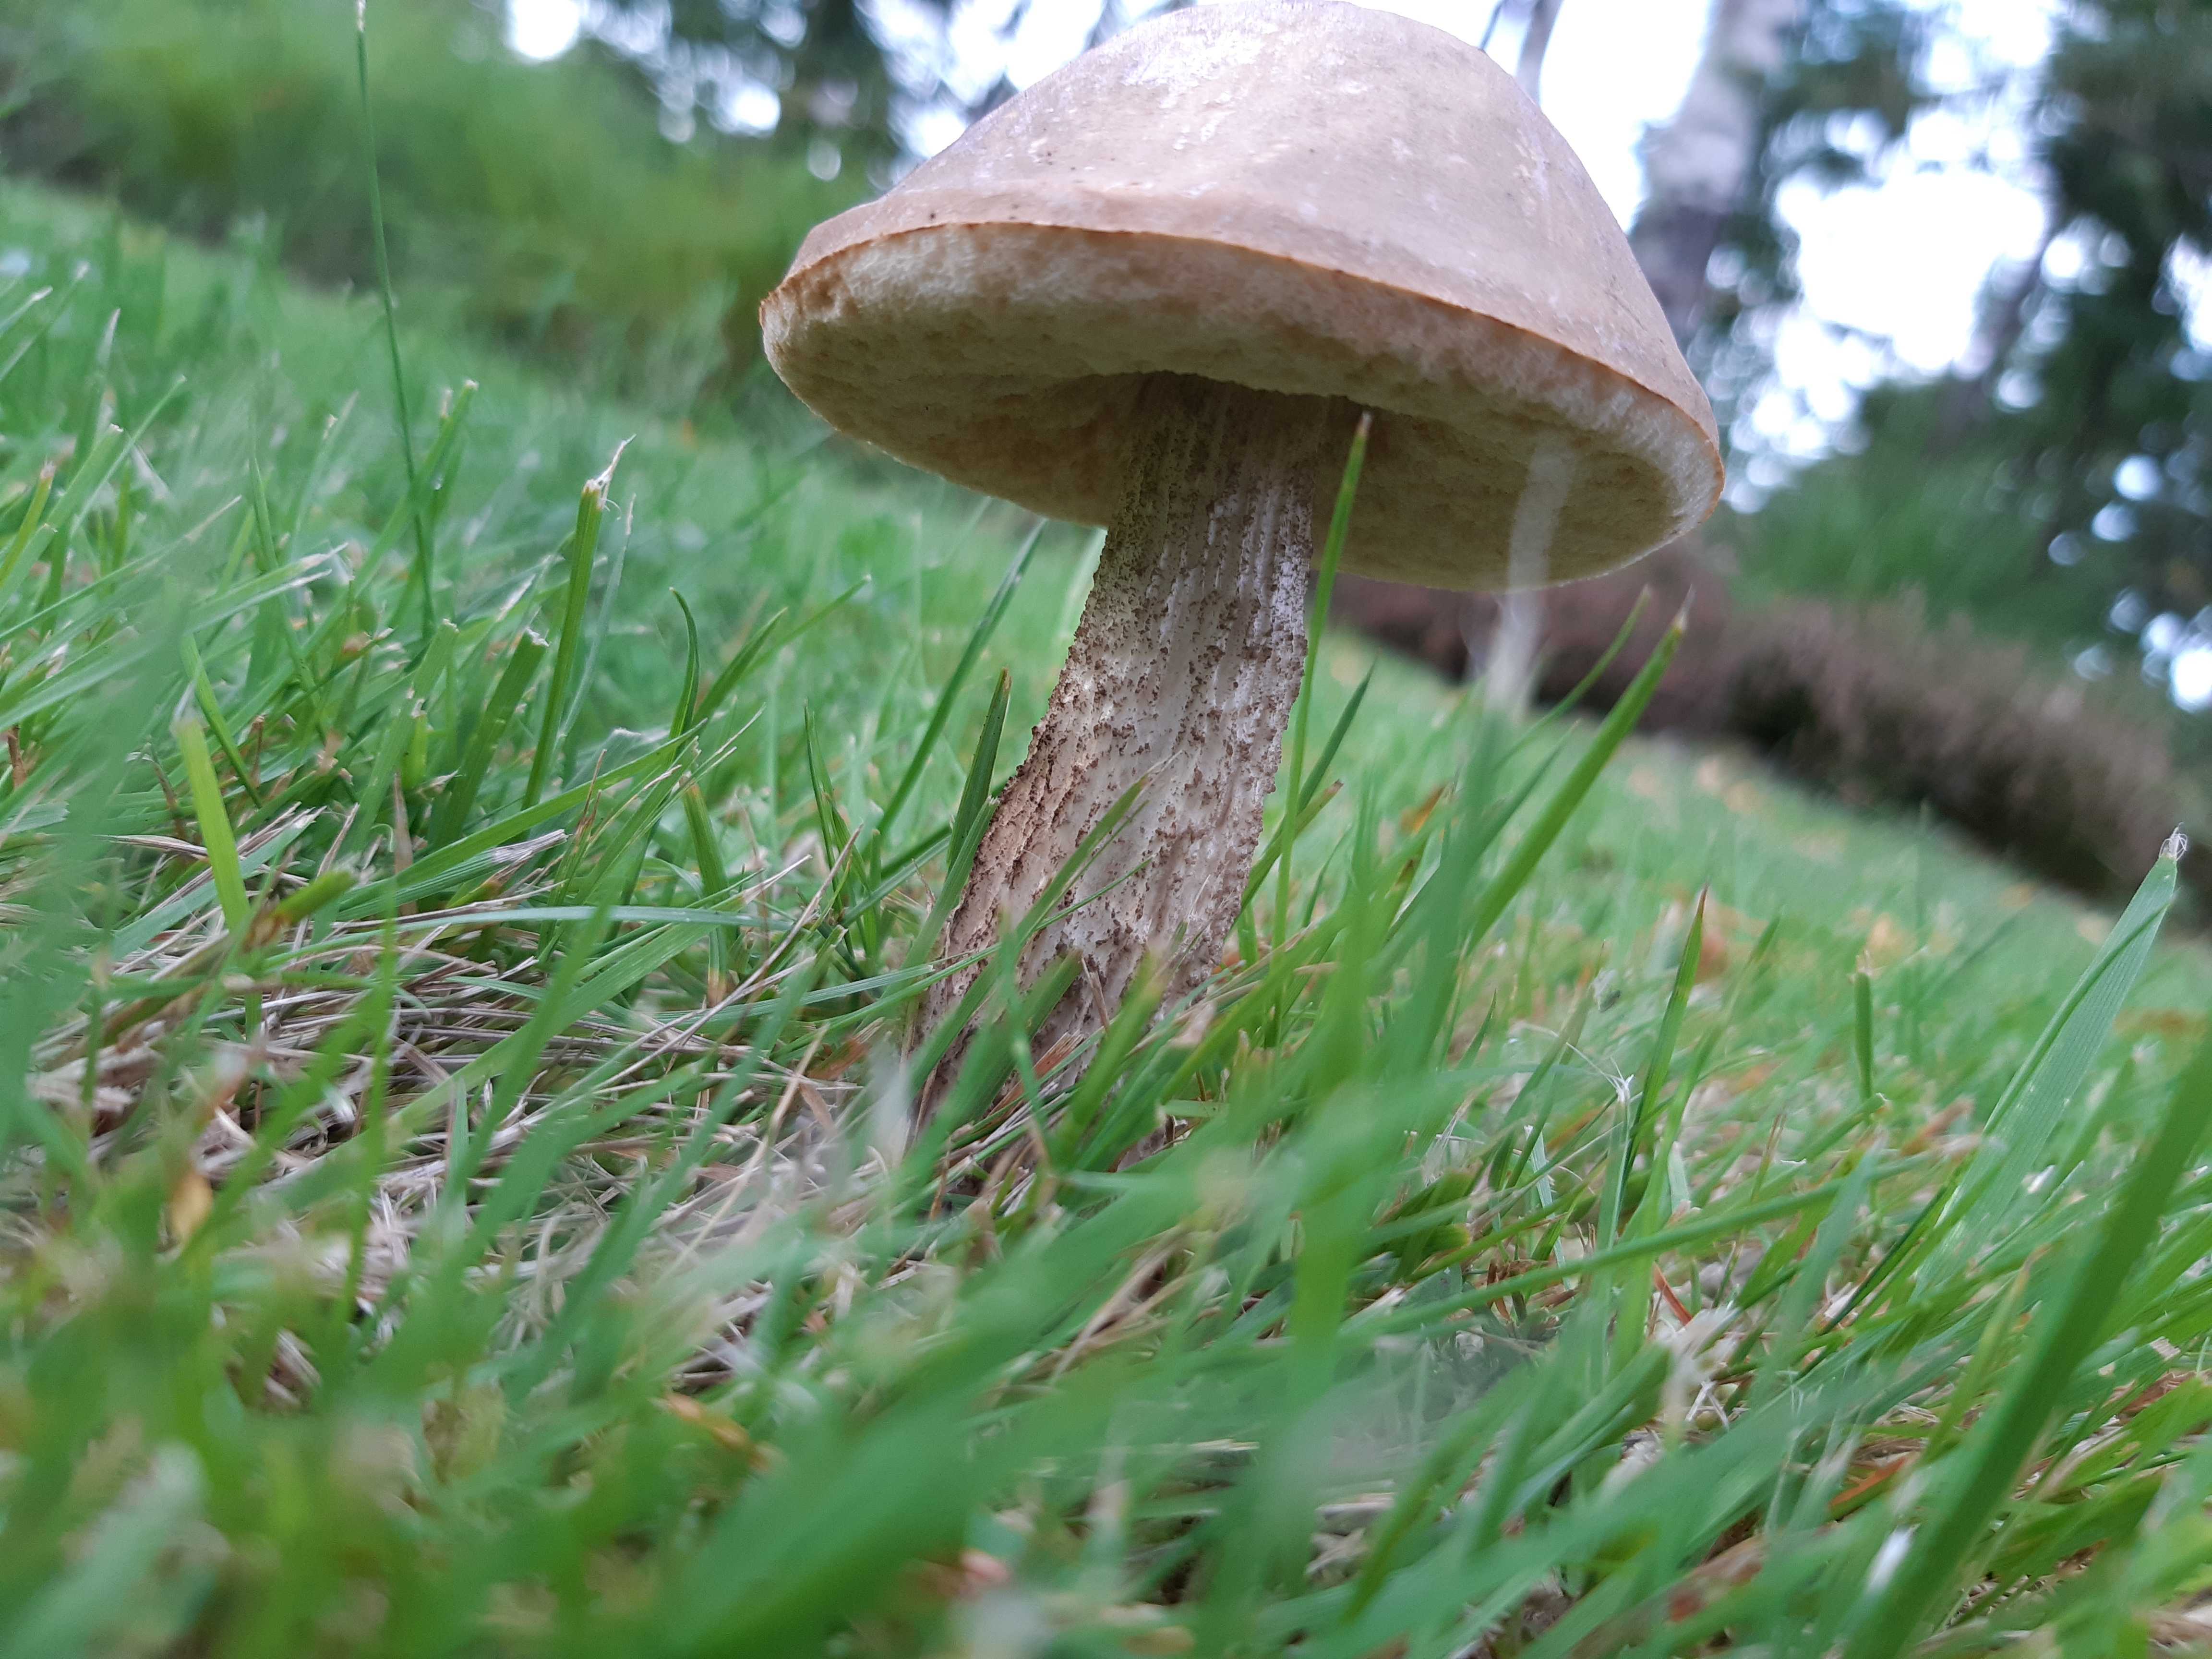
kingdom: Fungi
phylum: Basidiomycota
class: Agaricomycetes
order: Boletales
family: Boletaceae
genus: Leccinum
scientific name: Leccinum
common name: skælrørhat
